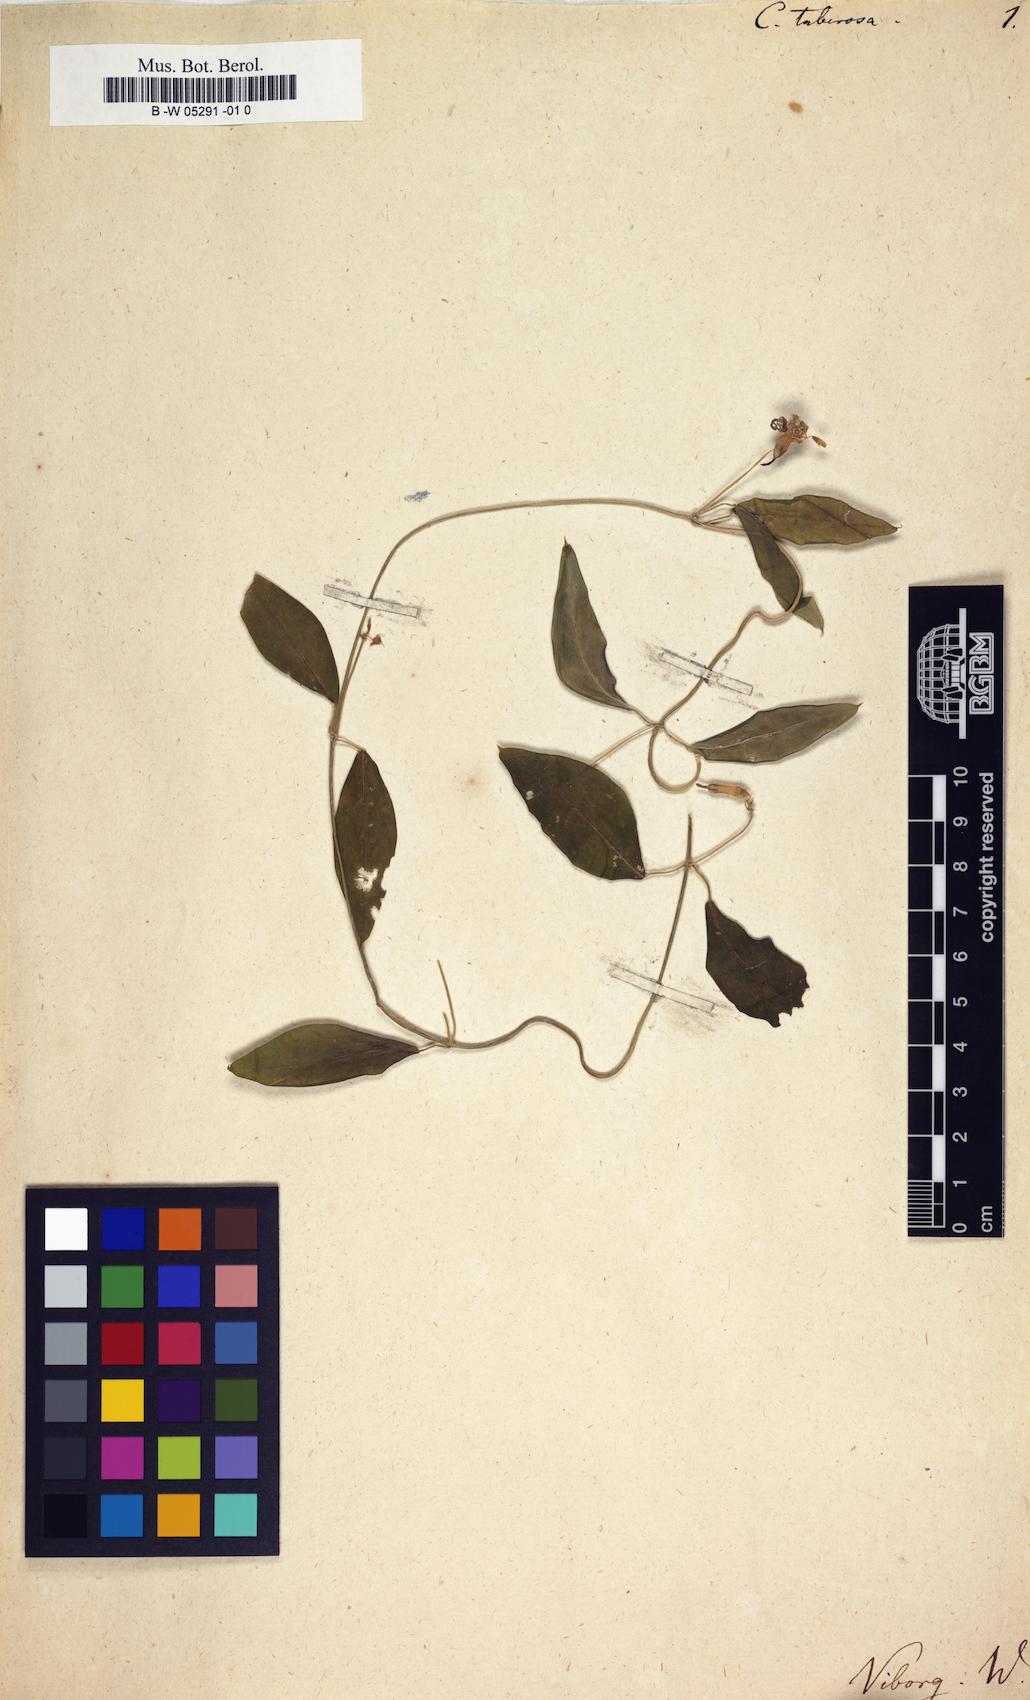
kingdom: Plantae
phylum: Tracheophyta
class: Magnoliopsida
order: Gentianales
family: Apocynaceae
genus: Ceropegia
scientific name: Ceropegia
